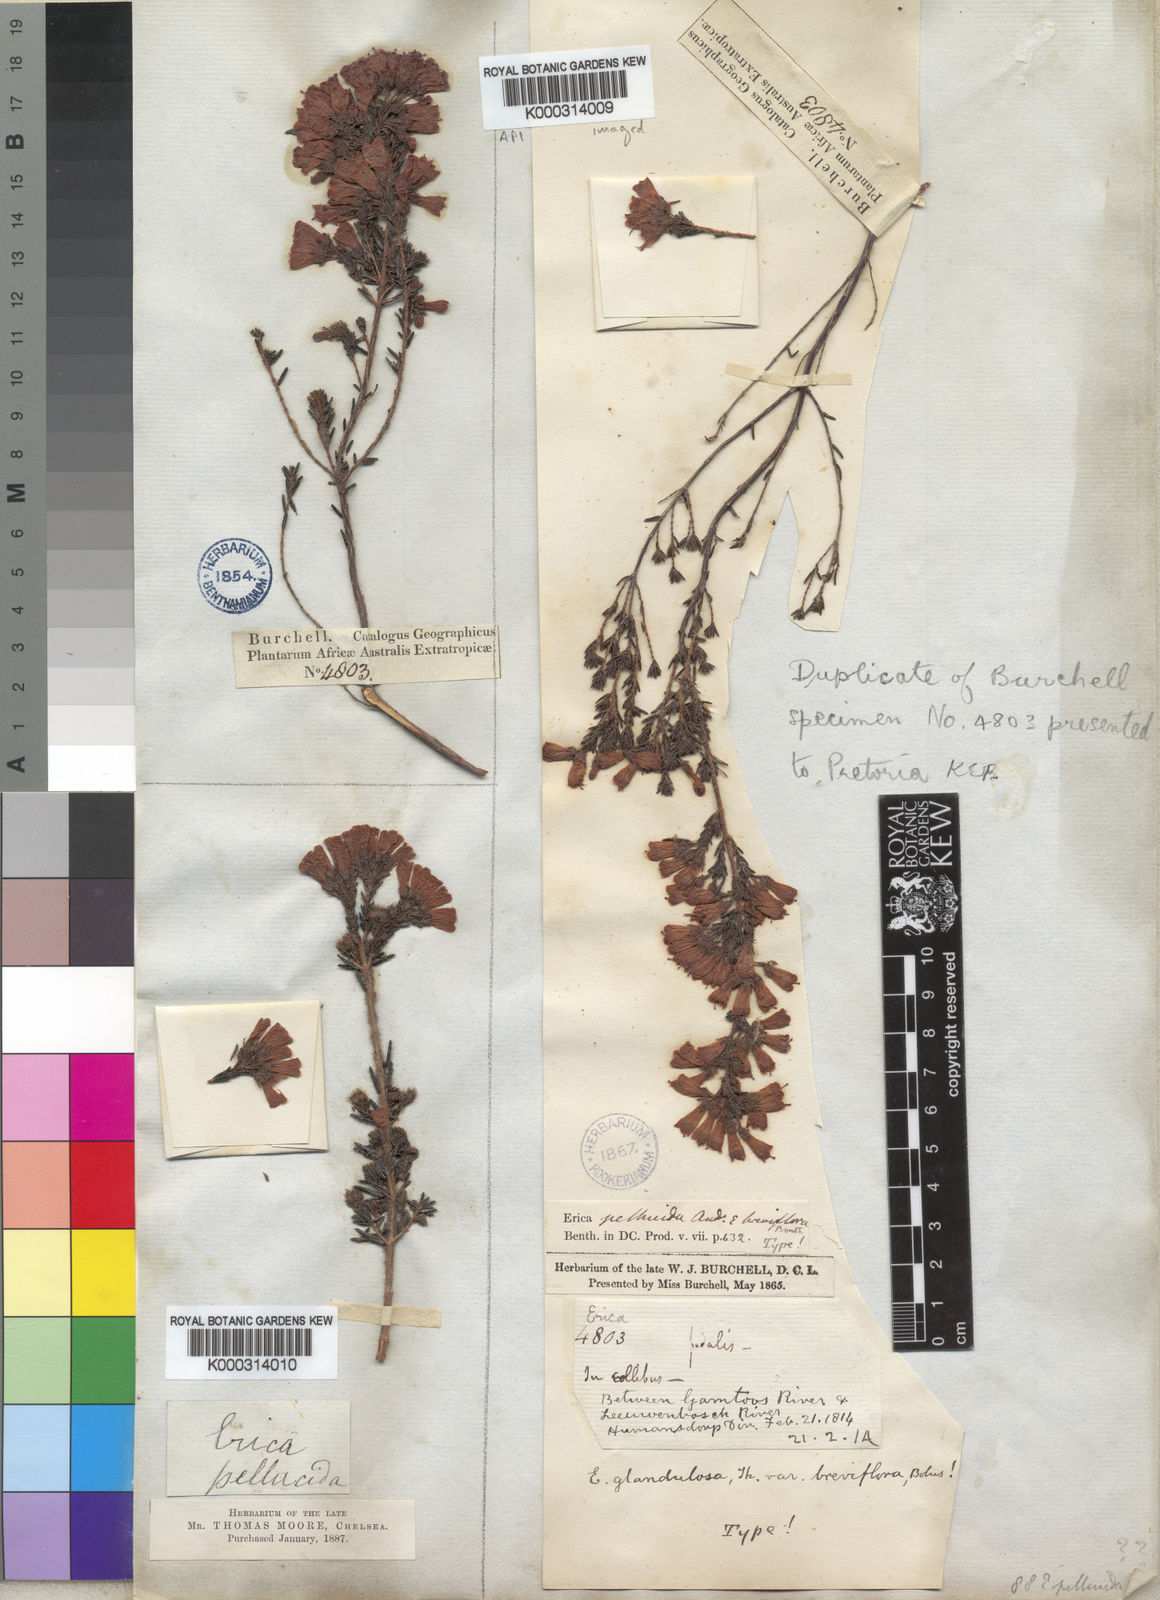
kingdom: Plantae
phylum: Tracheophyta
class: Magnoliopsida
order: Ericales
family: Ericaceae
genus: Erica
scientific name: Erica glandulosa
